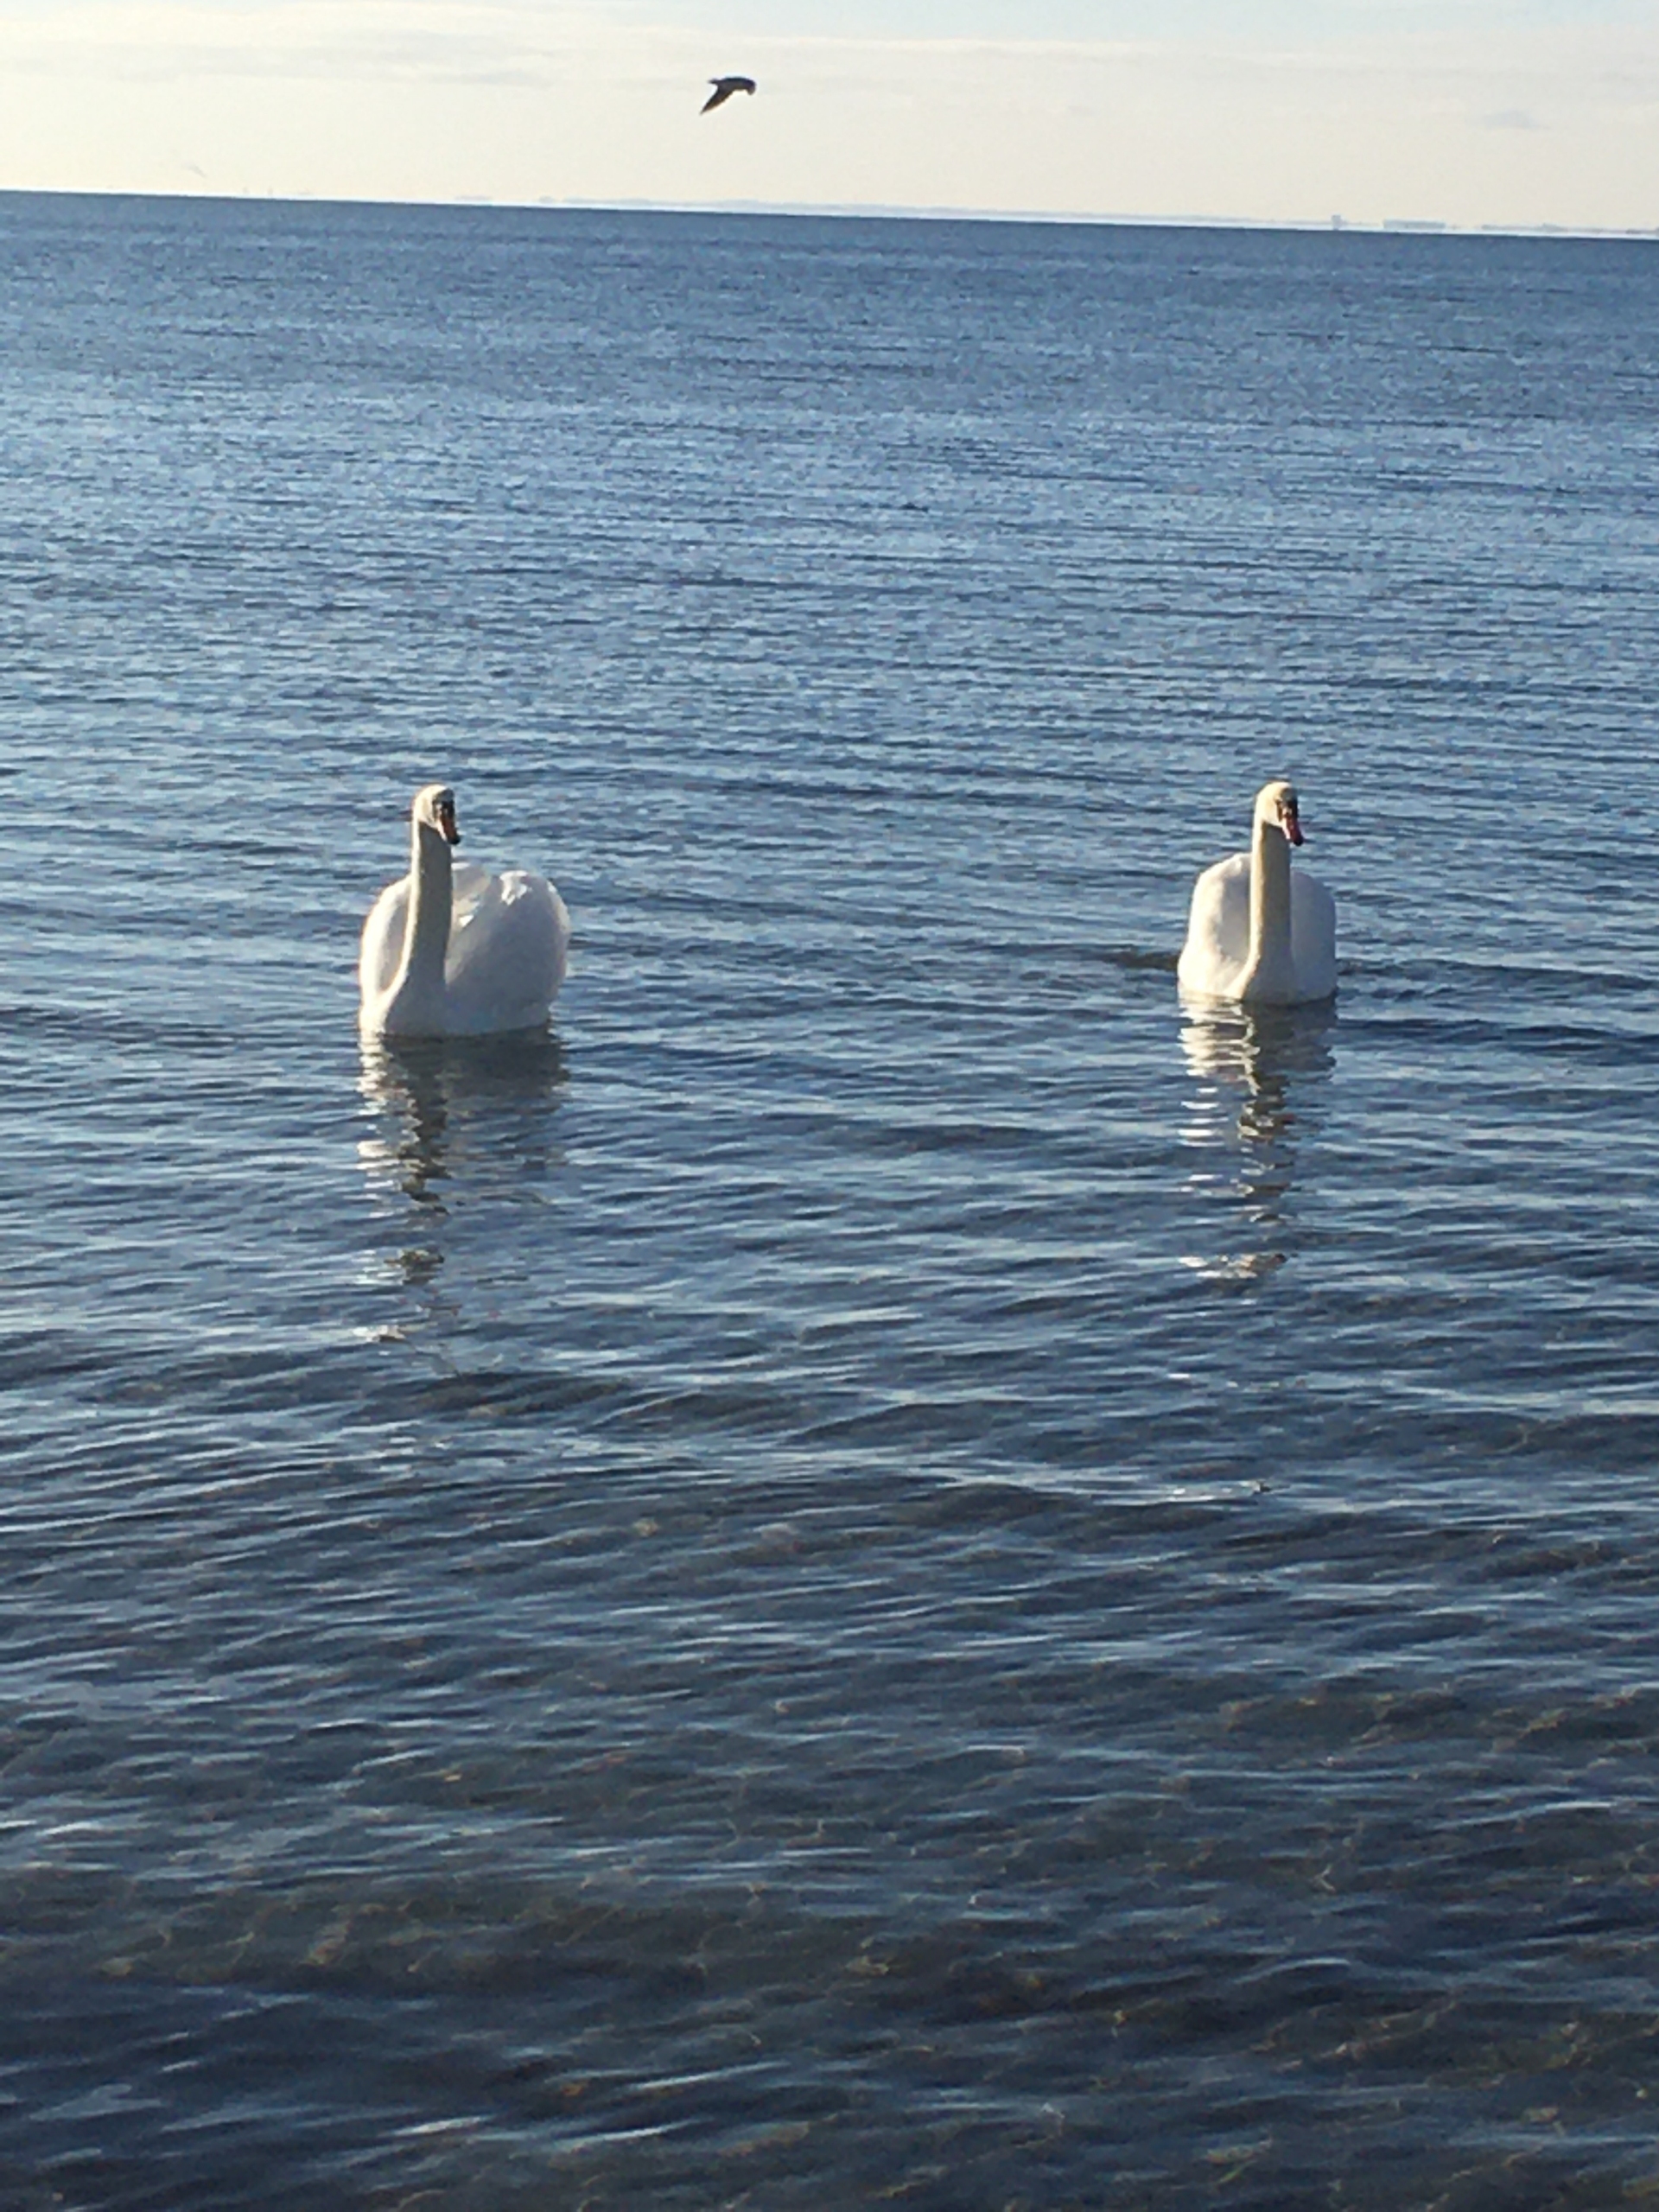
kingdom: Animalia
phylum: Chordata
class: Aves
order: Anseriformes
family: Anatidae
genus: Cygnus
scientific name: Cygnus olor
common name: Knopsvane
